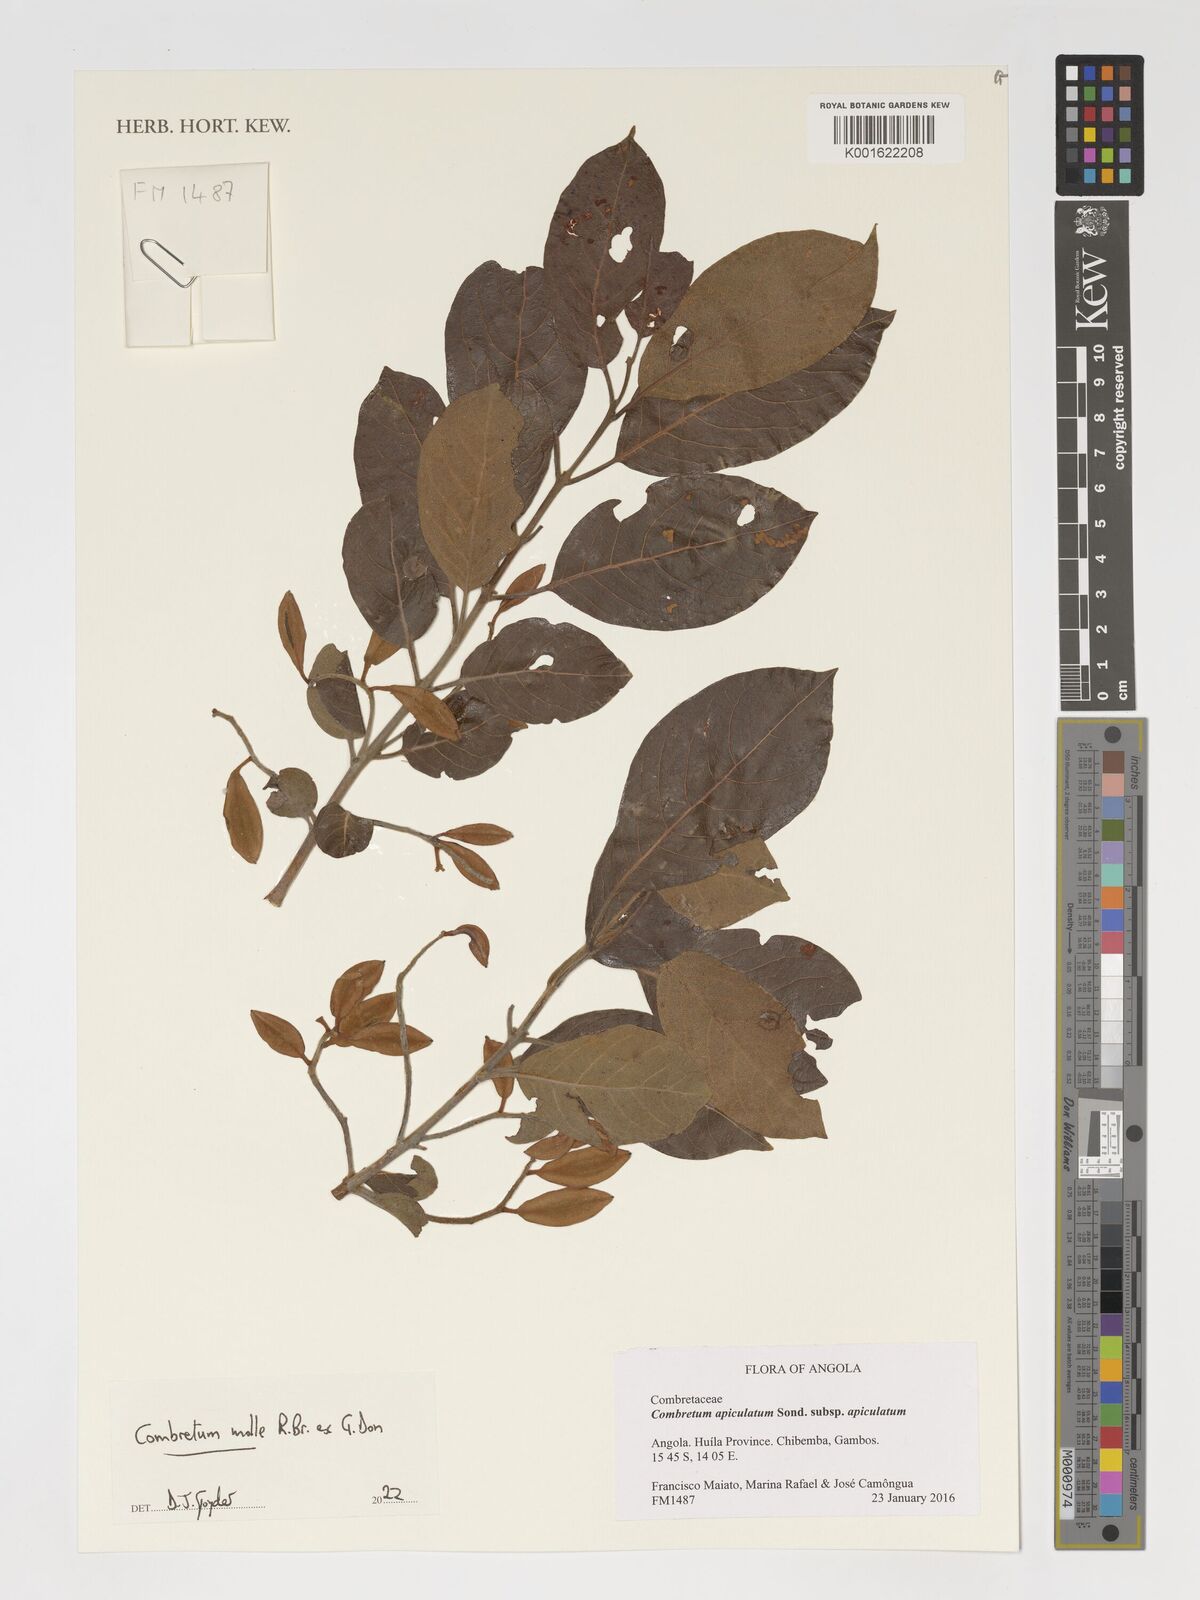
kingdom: Plantae
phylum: Tracheophyta
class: Magnoliopsida
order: Myrtales
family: Combretaceae
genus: Combretum
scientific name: Combretum molle
